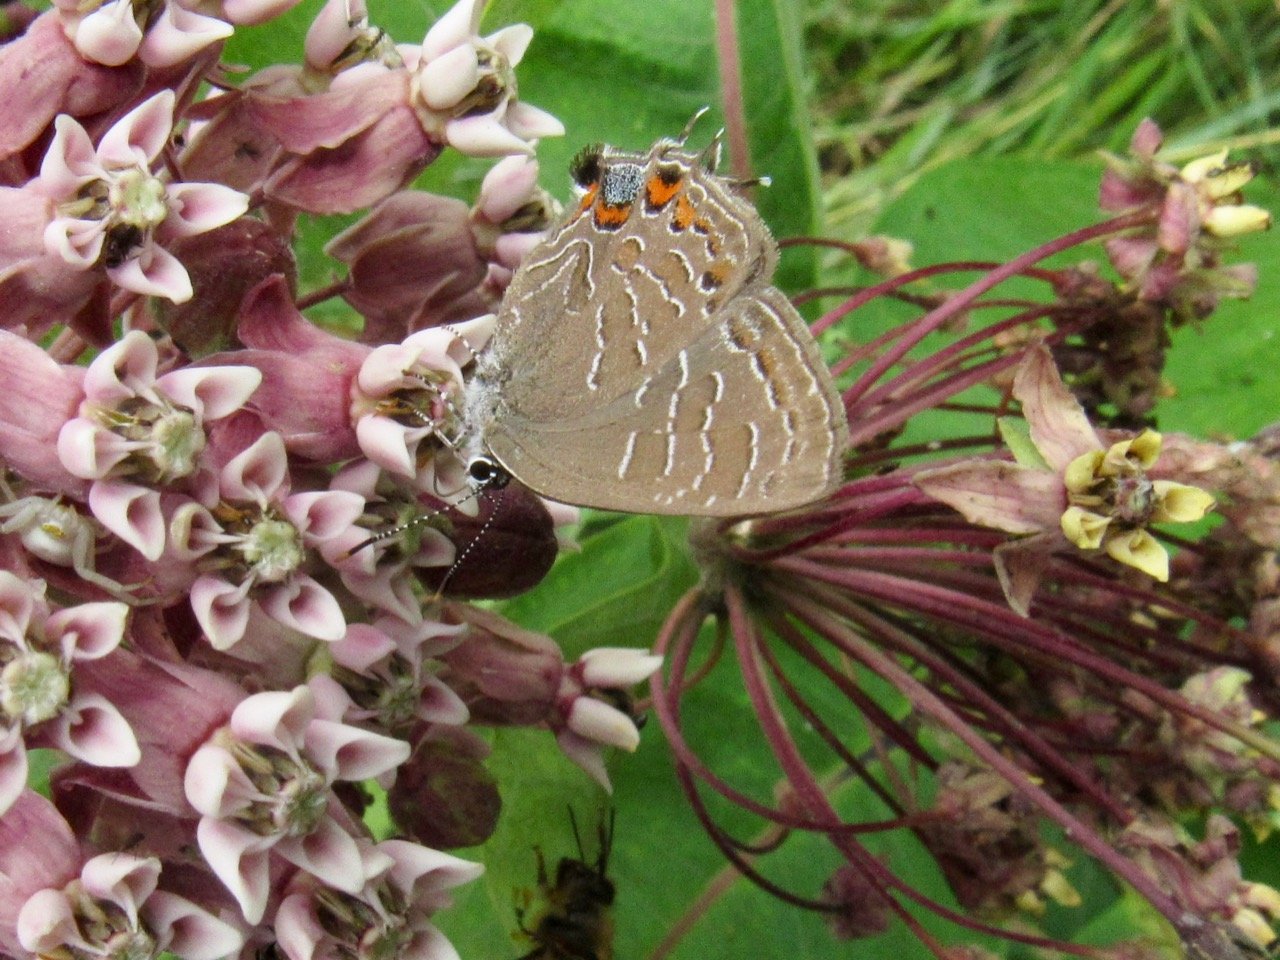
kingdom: Animalia
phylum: Arthropoda
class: Insecta
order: Lepidoptera
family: Lycaenidae
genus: Satyrium
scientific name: Satyrium liparops
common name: Striped Hairstreak
